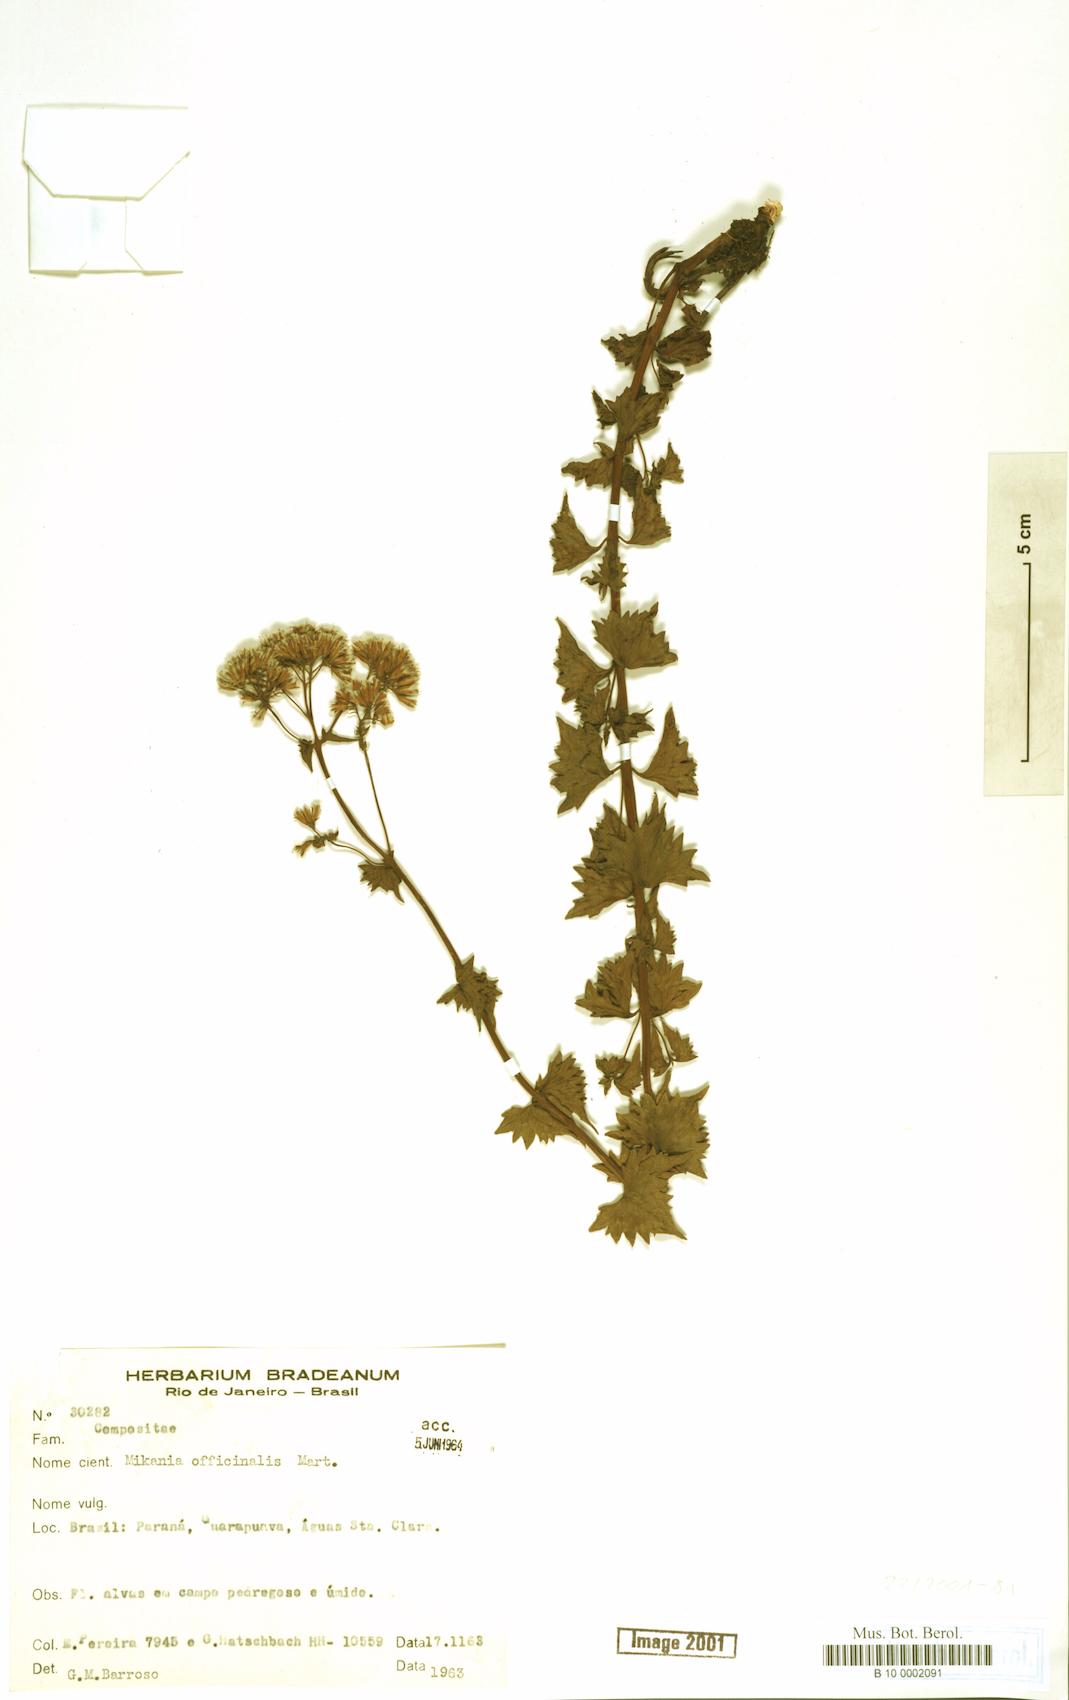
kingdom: Plantae
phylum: Tracheophyta
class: Magnoliopsida
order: Asterales
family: Asteraceae
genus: Mikania
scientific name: Mikania officinalis
